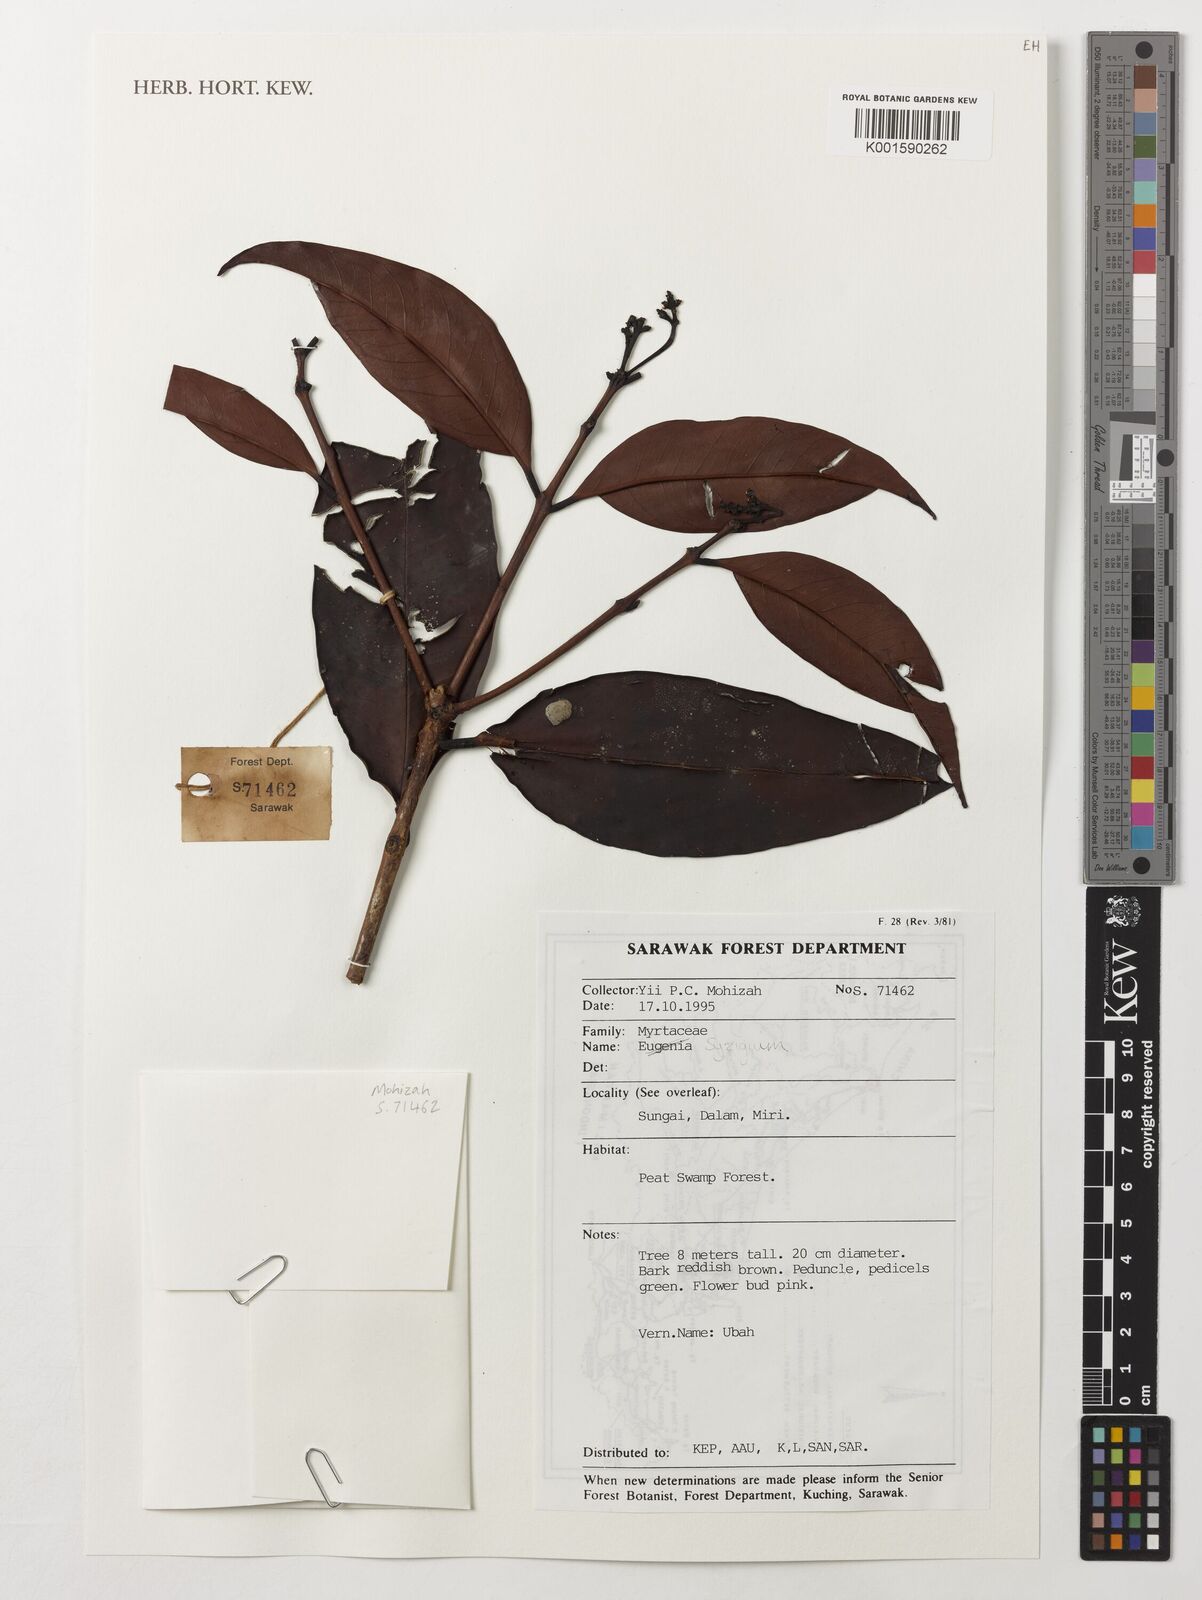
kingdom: Plantae
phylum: Tracheophyta
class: Magnoliopsida
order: Myrtales
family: Myrtaceae
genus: Syzygium
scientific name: Syzygium
